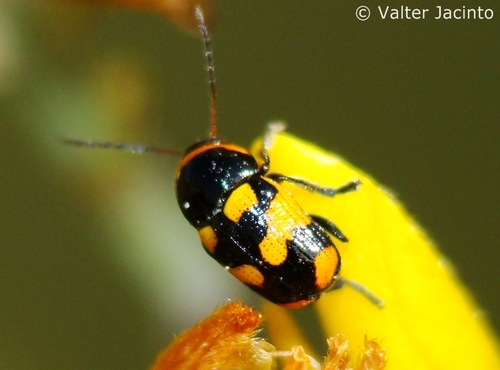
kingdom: Animalia
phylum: Arthropoda
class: Insecta
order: Coleoptera
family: Chrysomelidae
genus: Cryptocephalus
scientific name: Cryptocephalus octoguttatus
